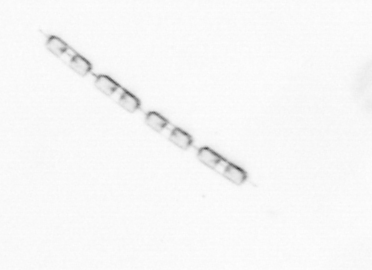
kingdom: Chromista
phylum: Ochrophyta
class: Bacillariophyceae
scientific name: Bacillariophyceae
